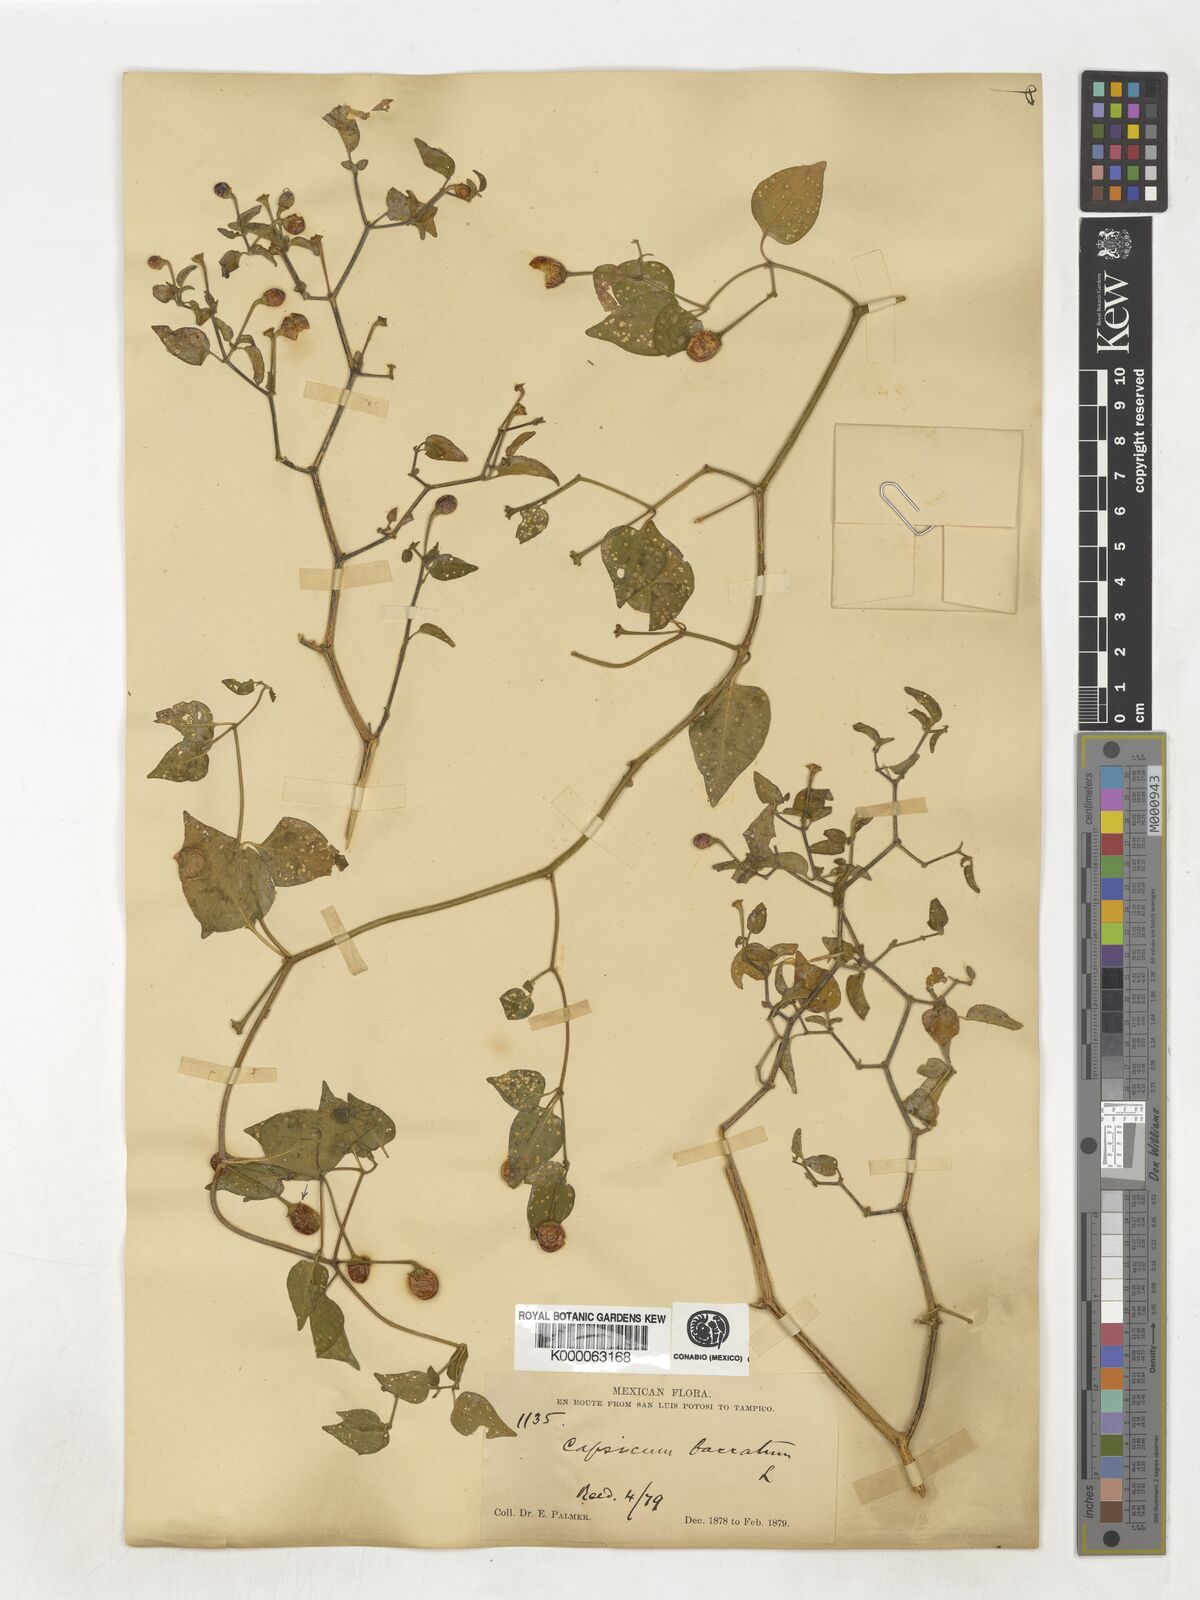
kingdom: Plantae
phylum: Tracheophyta
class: Magnoliopsida
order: Solanales
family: Solanaceae
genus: Capsicum
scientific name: Capsicum baccatum
